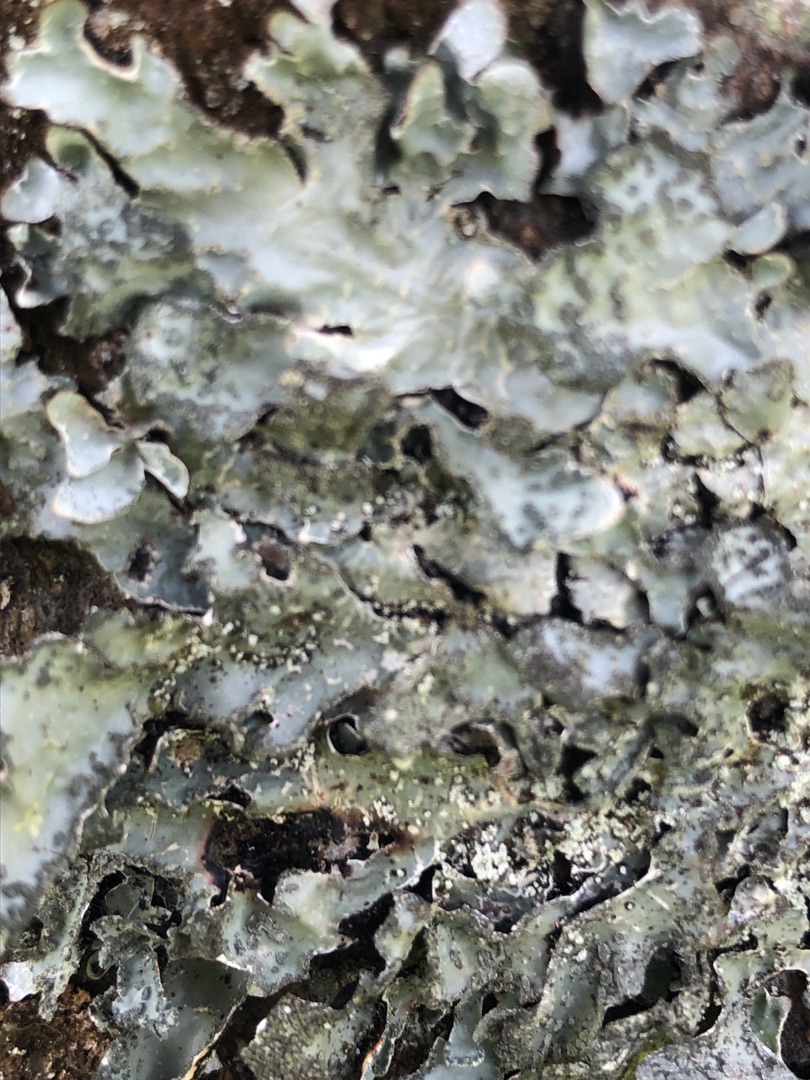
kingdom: Fungi
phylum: Ascomycota
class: Lecanoromycetes
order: Lecanorales
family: Parmeliaceae
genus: Parmelia
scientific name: Parmelia sulcata
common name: Rynket skållav
